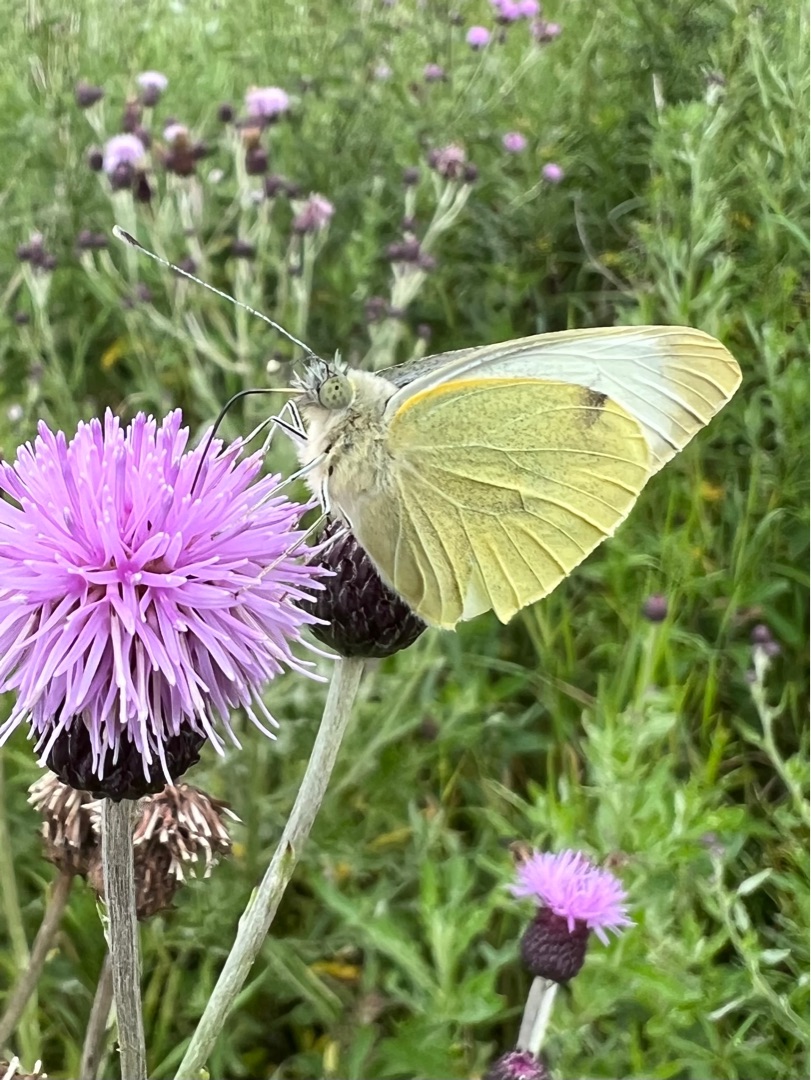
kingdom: Animalia
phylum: Arthropoda
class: Insecta
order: Lepidoptera
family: Pieridae
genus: Pieris
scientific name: Pieris brassicae
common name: Stor kålsommerfugl
